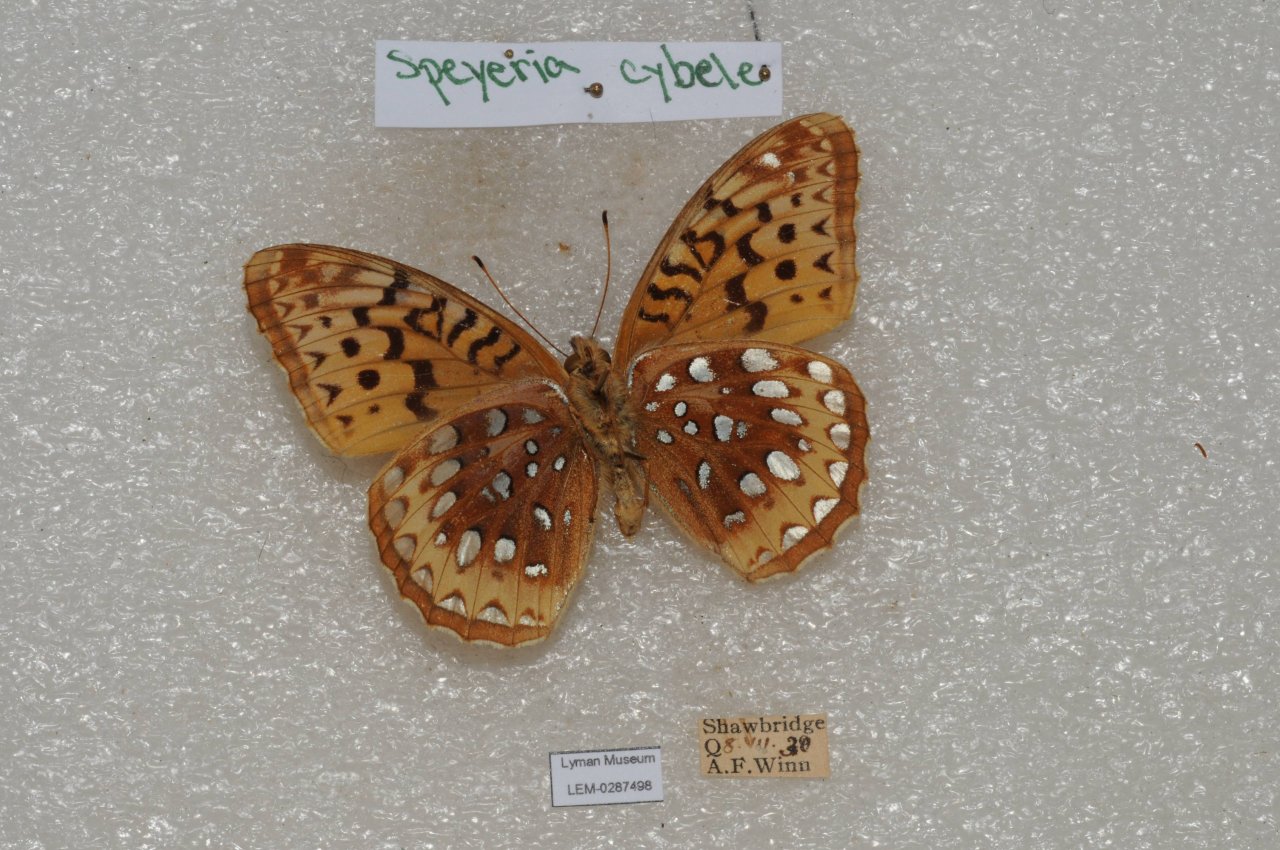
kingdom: Animalia
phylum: Arthropoda
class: Insecta
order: Lepidoptera
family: Nymphalidae
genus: Speyeria
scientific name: Speyeria cybele
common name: Great Spangled Fritillary
